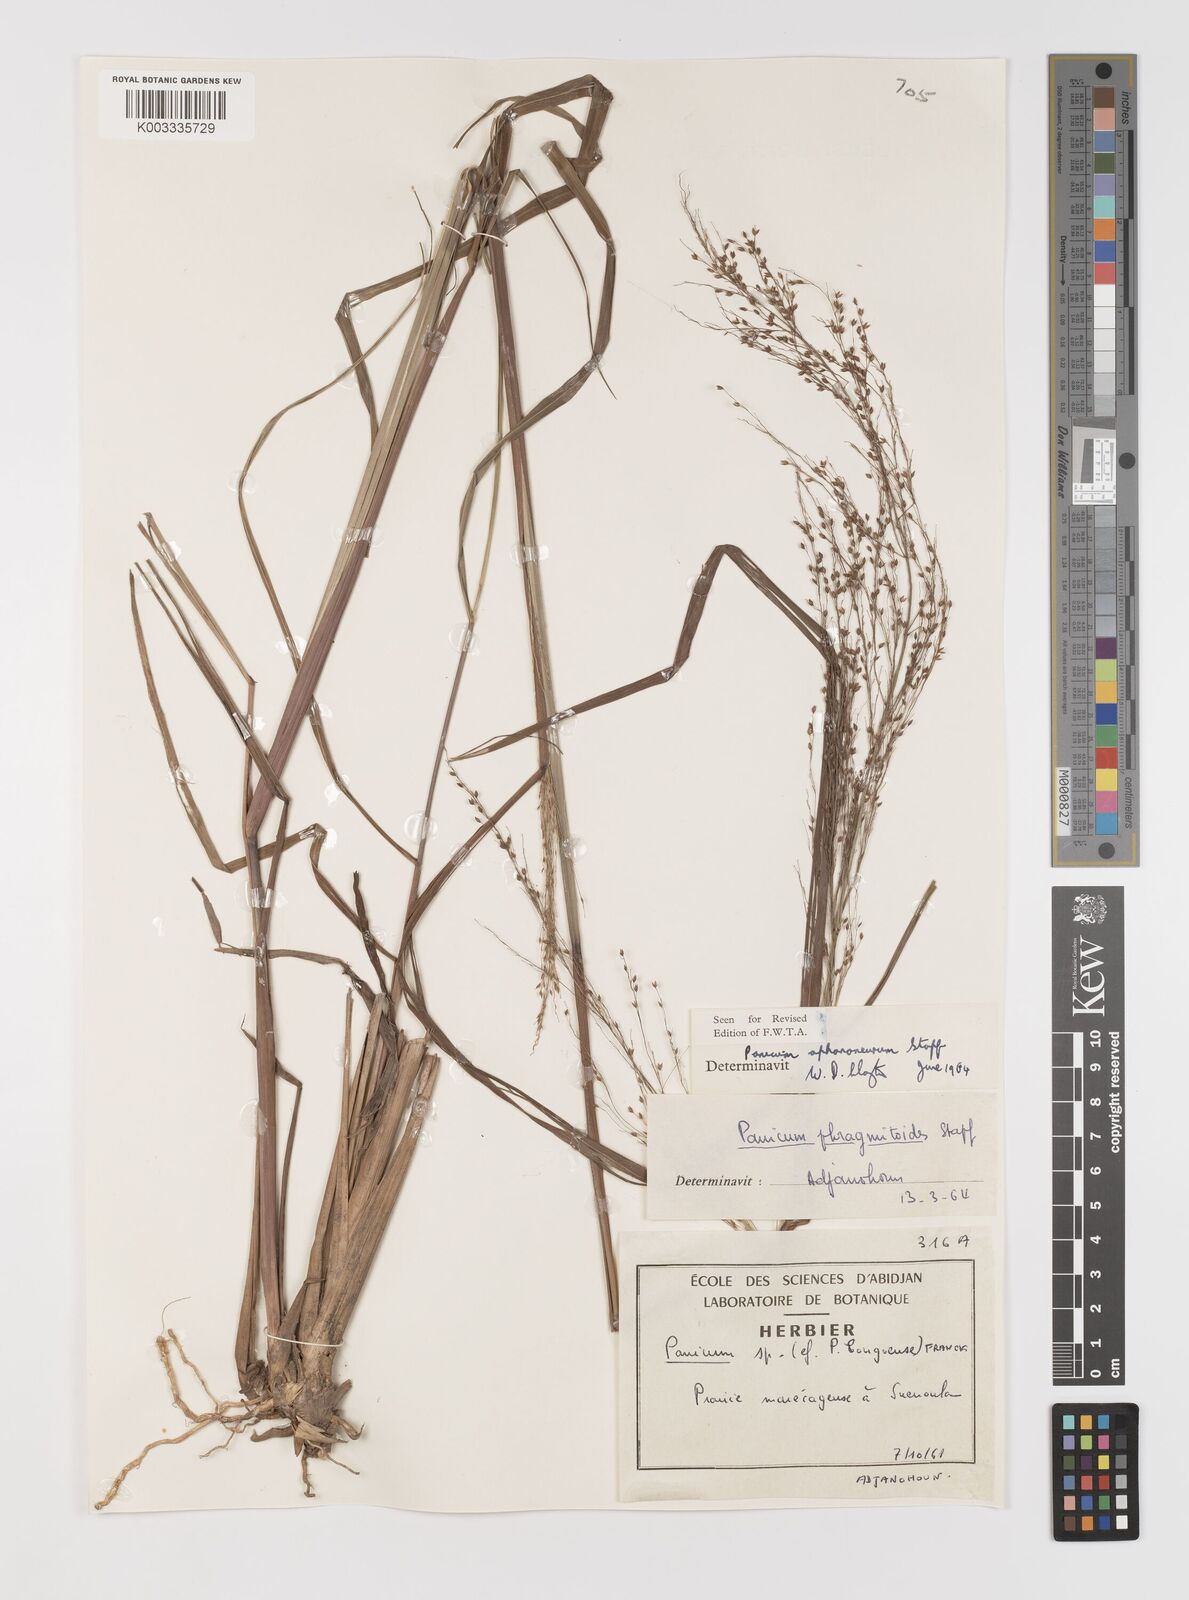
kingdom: Plantae
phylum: Tracheophyta
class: Liliopsida
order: Poales
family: Poaceae
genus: Panicum
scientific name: Panicum fluviicola
